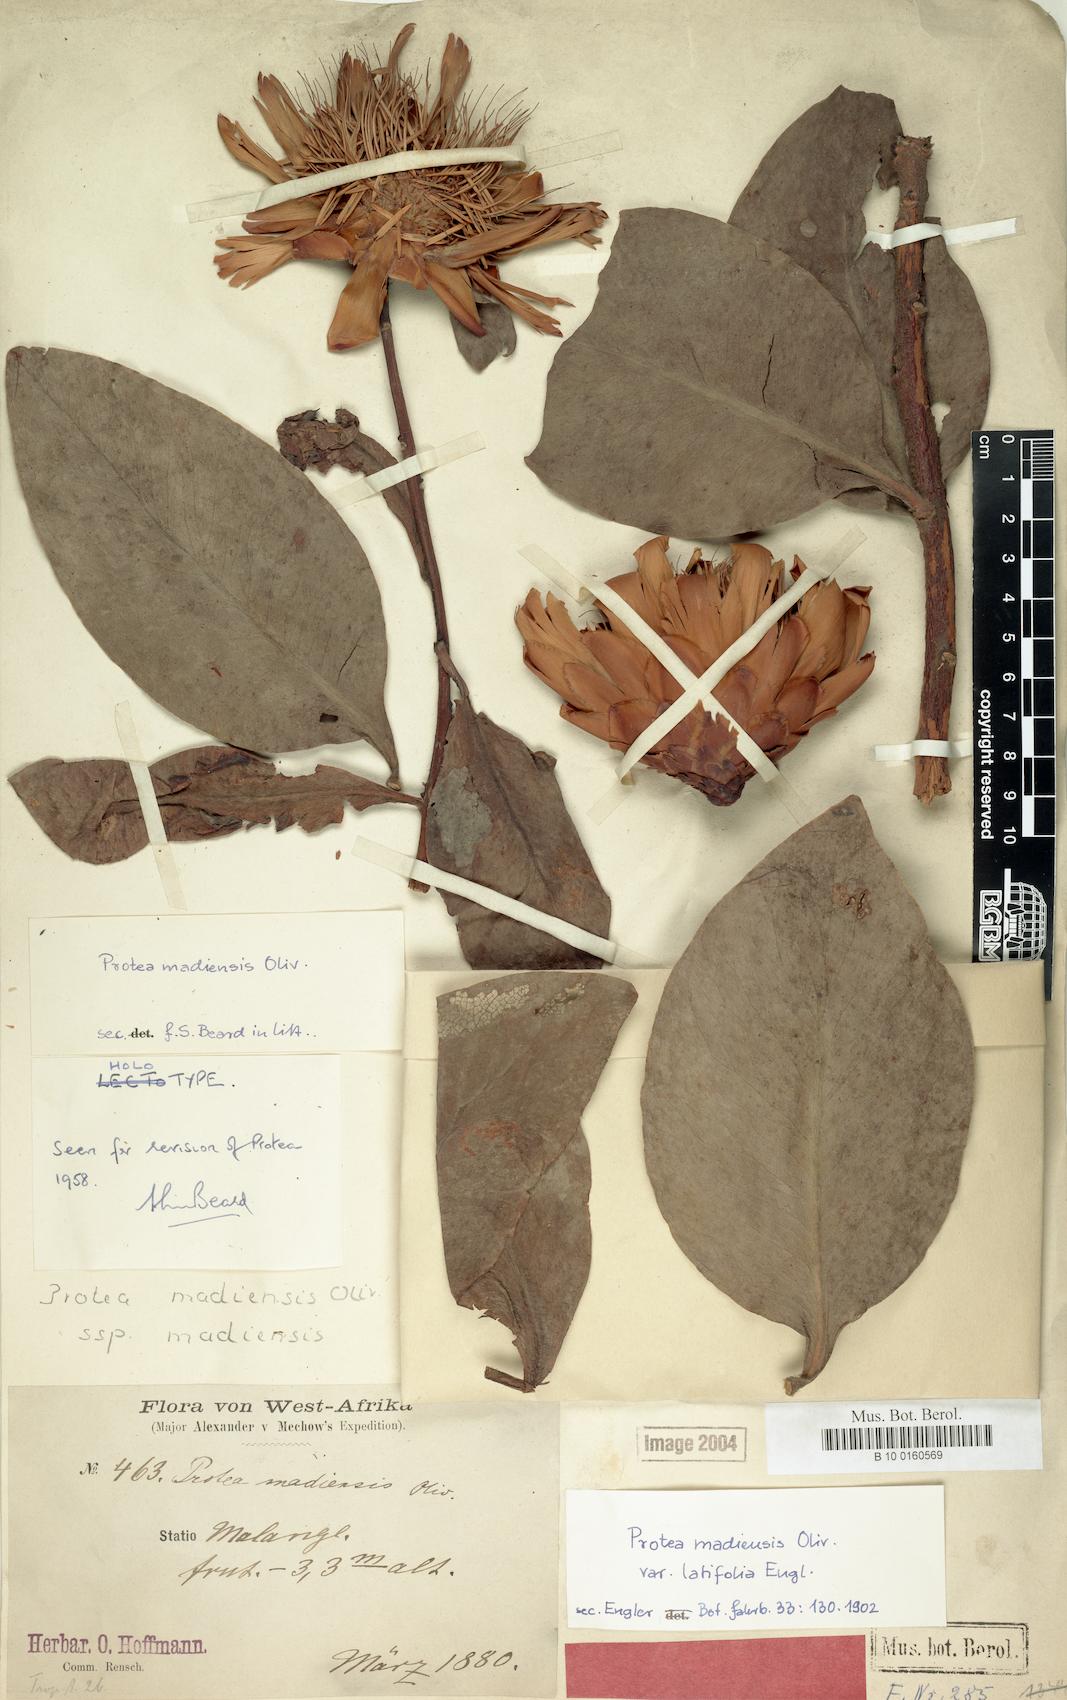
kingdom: Plantae
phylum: Tracheophyta
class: Magnoliopsida
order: Proteales
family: Proteaceae
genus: Protea
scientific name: Protea madiensis
